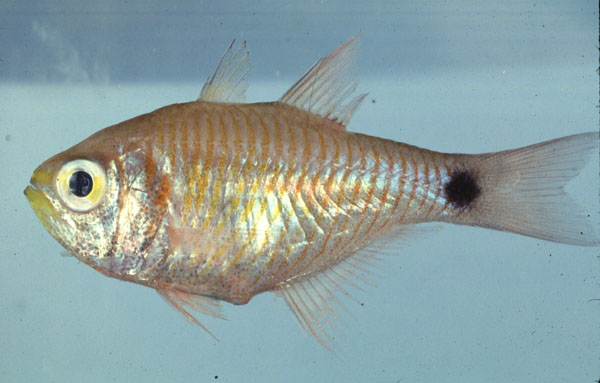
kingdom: Animalia
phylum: Chordata
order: Perciformes
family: Apogonidae
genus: Taeniamia
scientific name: Taeniamia fucata
